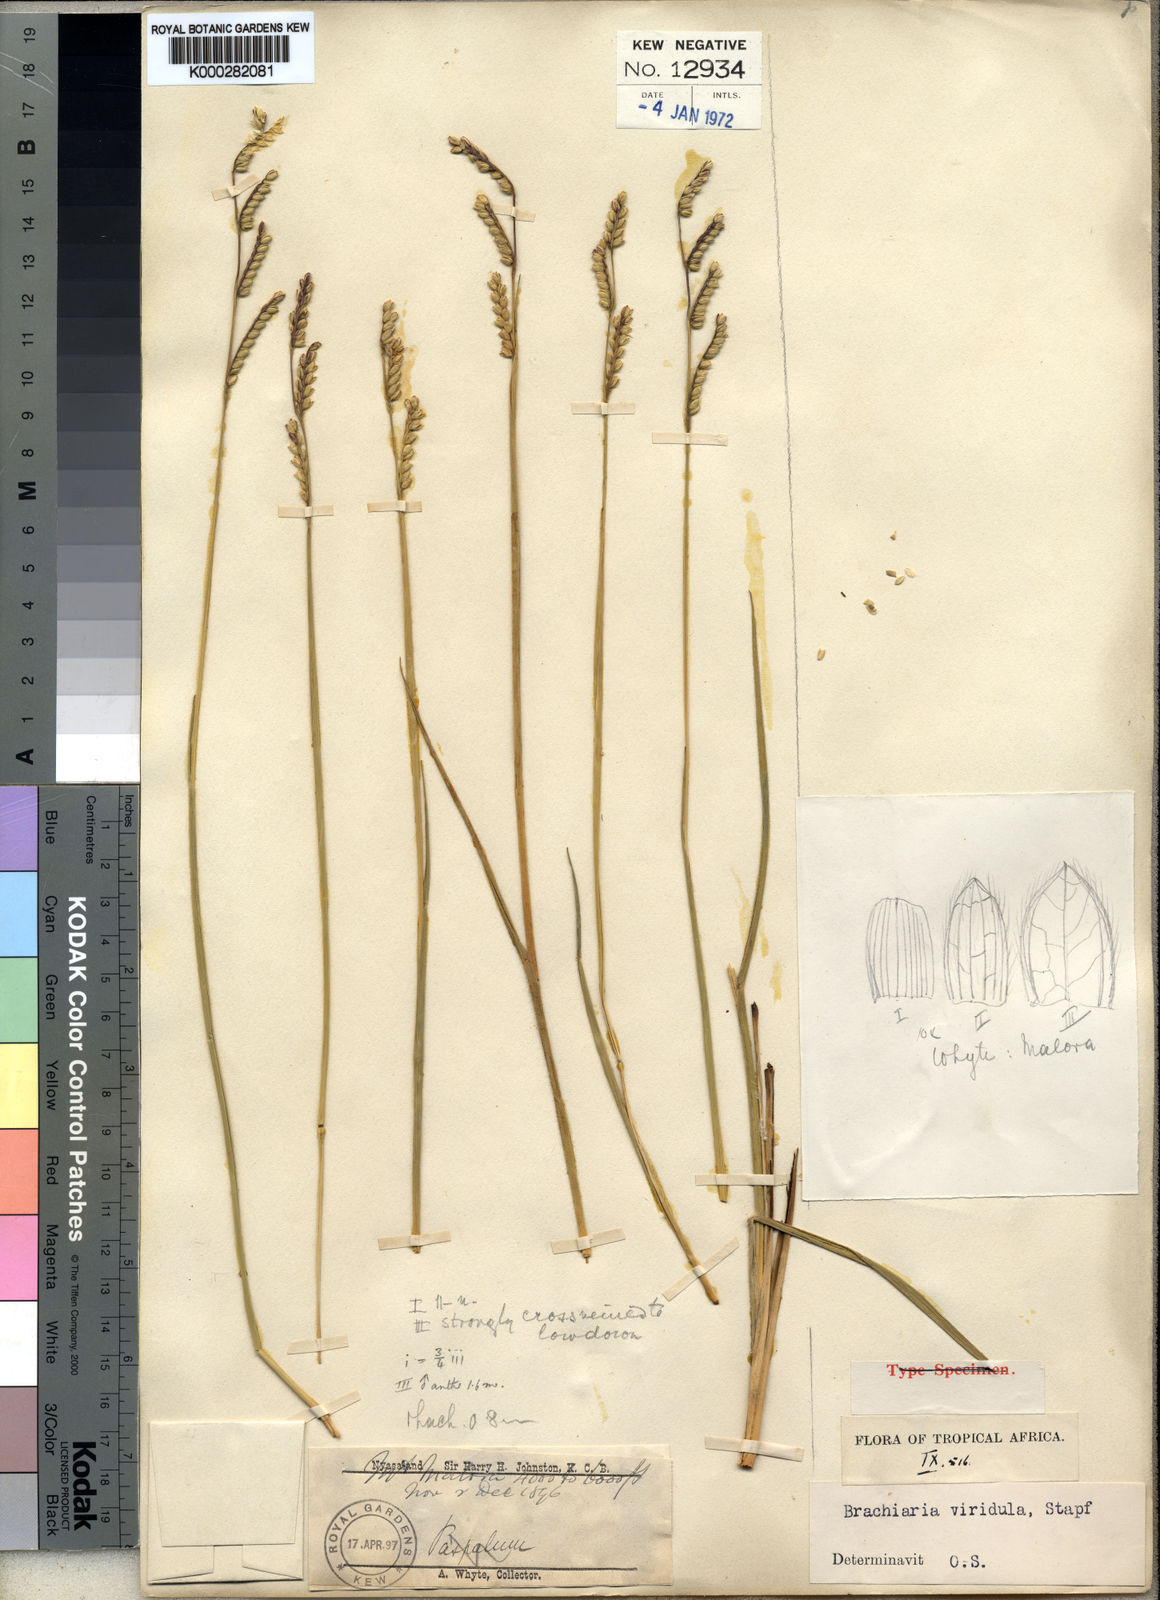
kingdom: Plantae
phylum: Tracheophyta
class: Liliopsida
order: Poales
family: Poaceae
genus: Urochloa
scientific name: Urochloa bovonei
